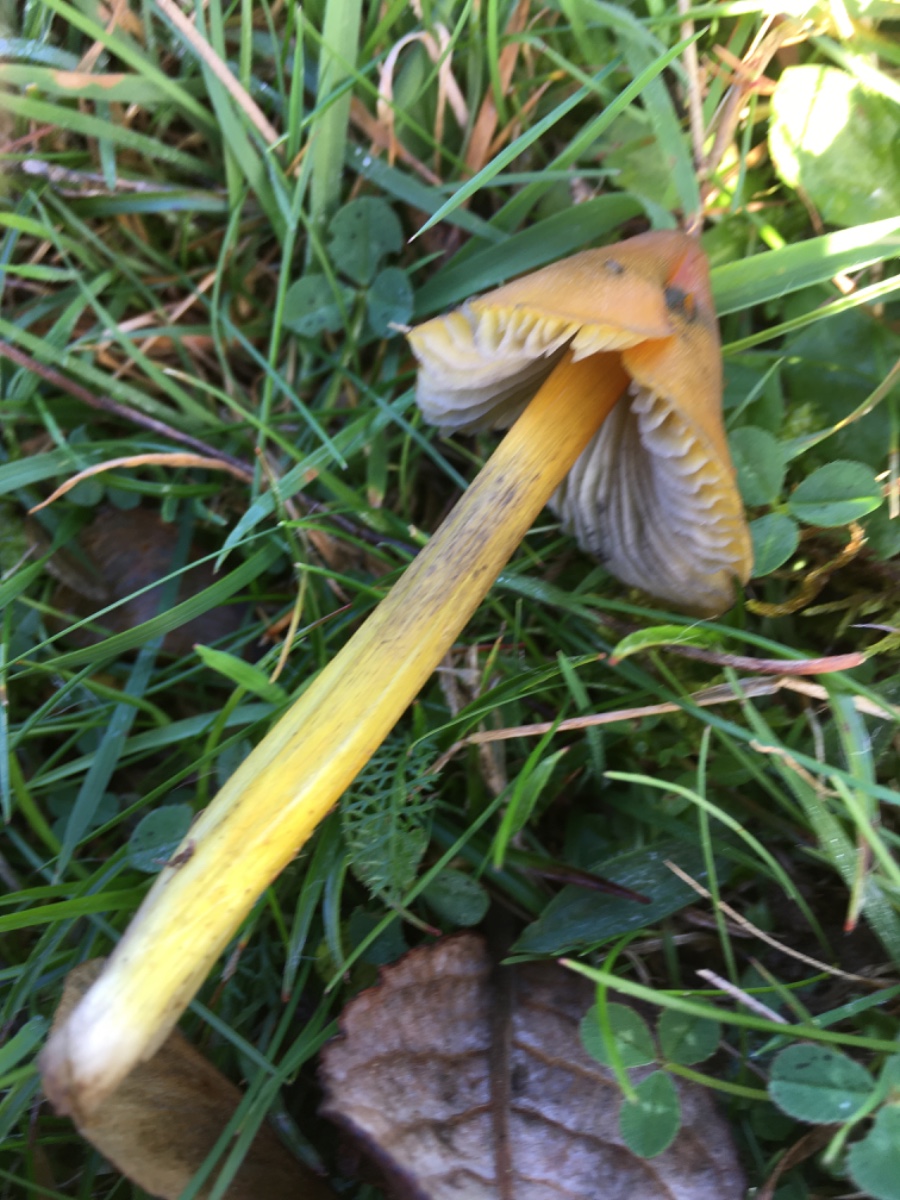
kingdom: Fungi
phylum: Basidiomycota
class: Agaricomycetes
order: Agaricales
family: Hygrophoraceae
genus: Hygrocybe
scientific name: Hygrocybe conica
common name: kegle-vokshat
